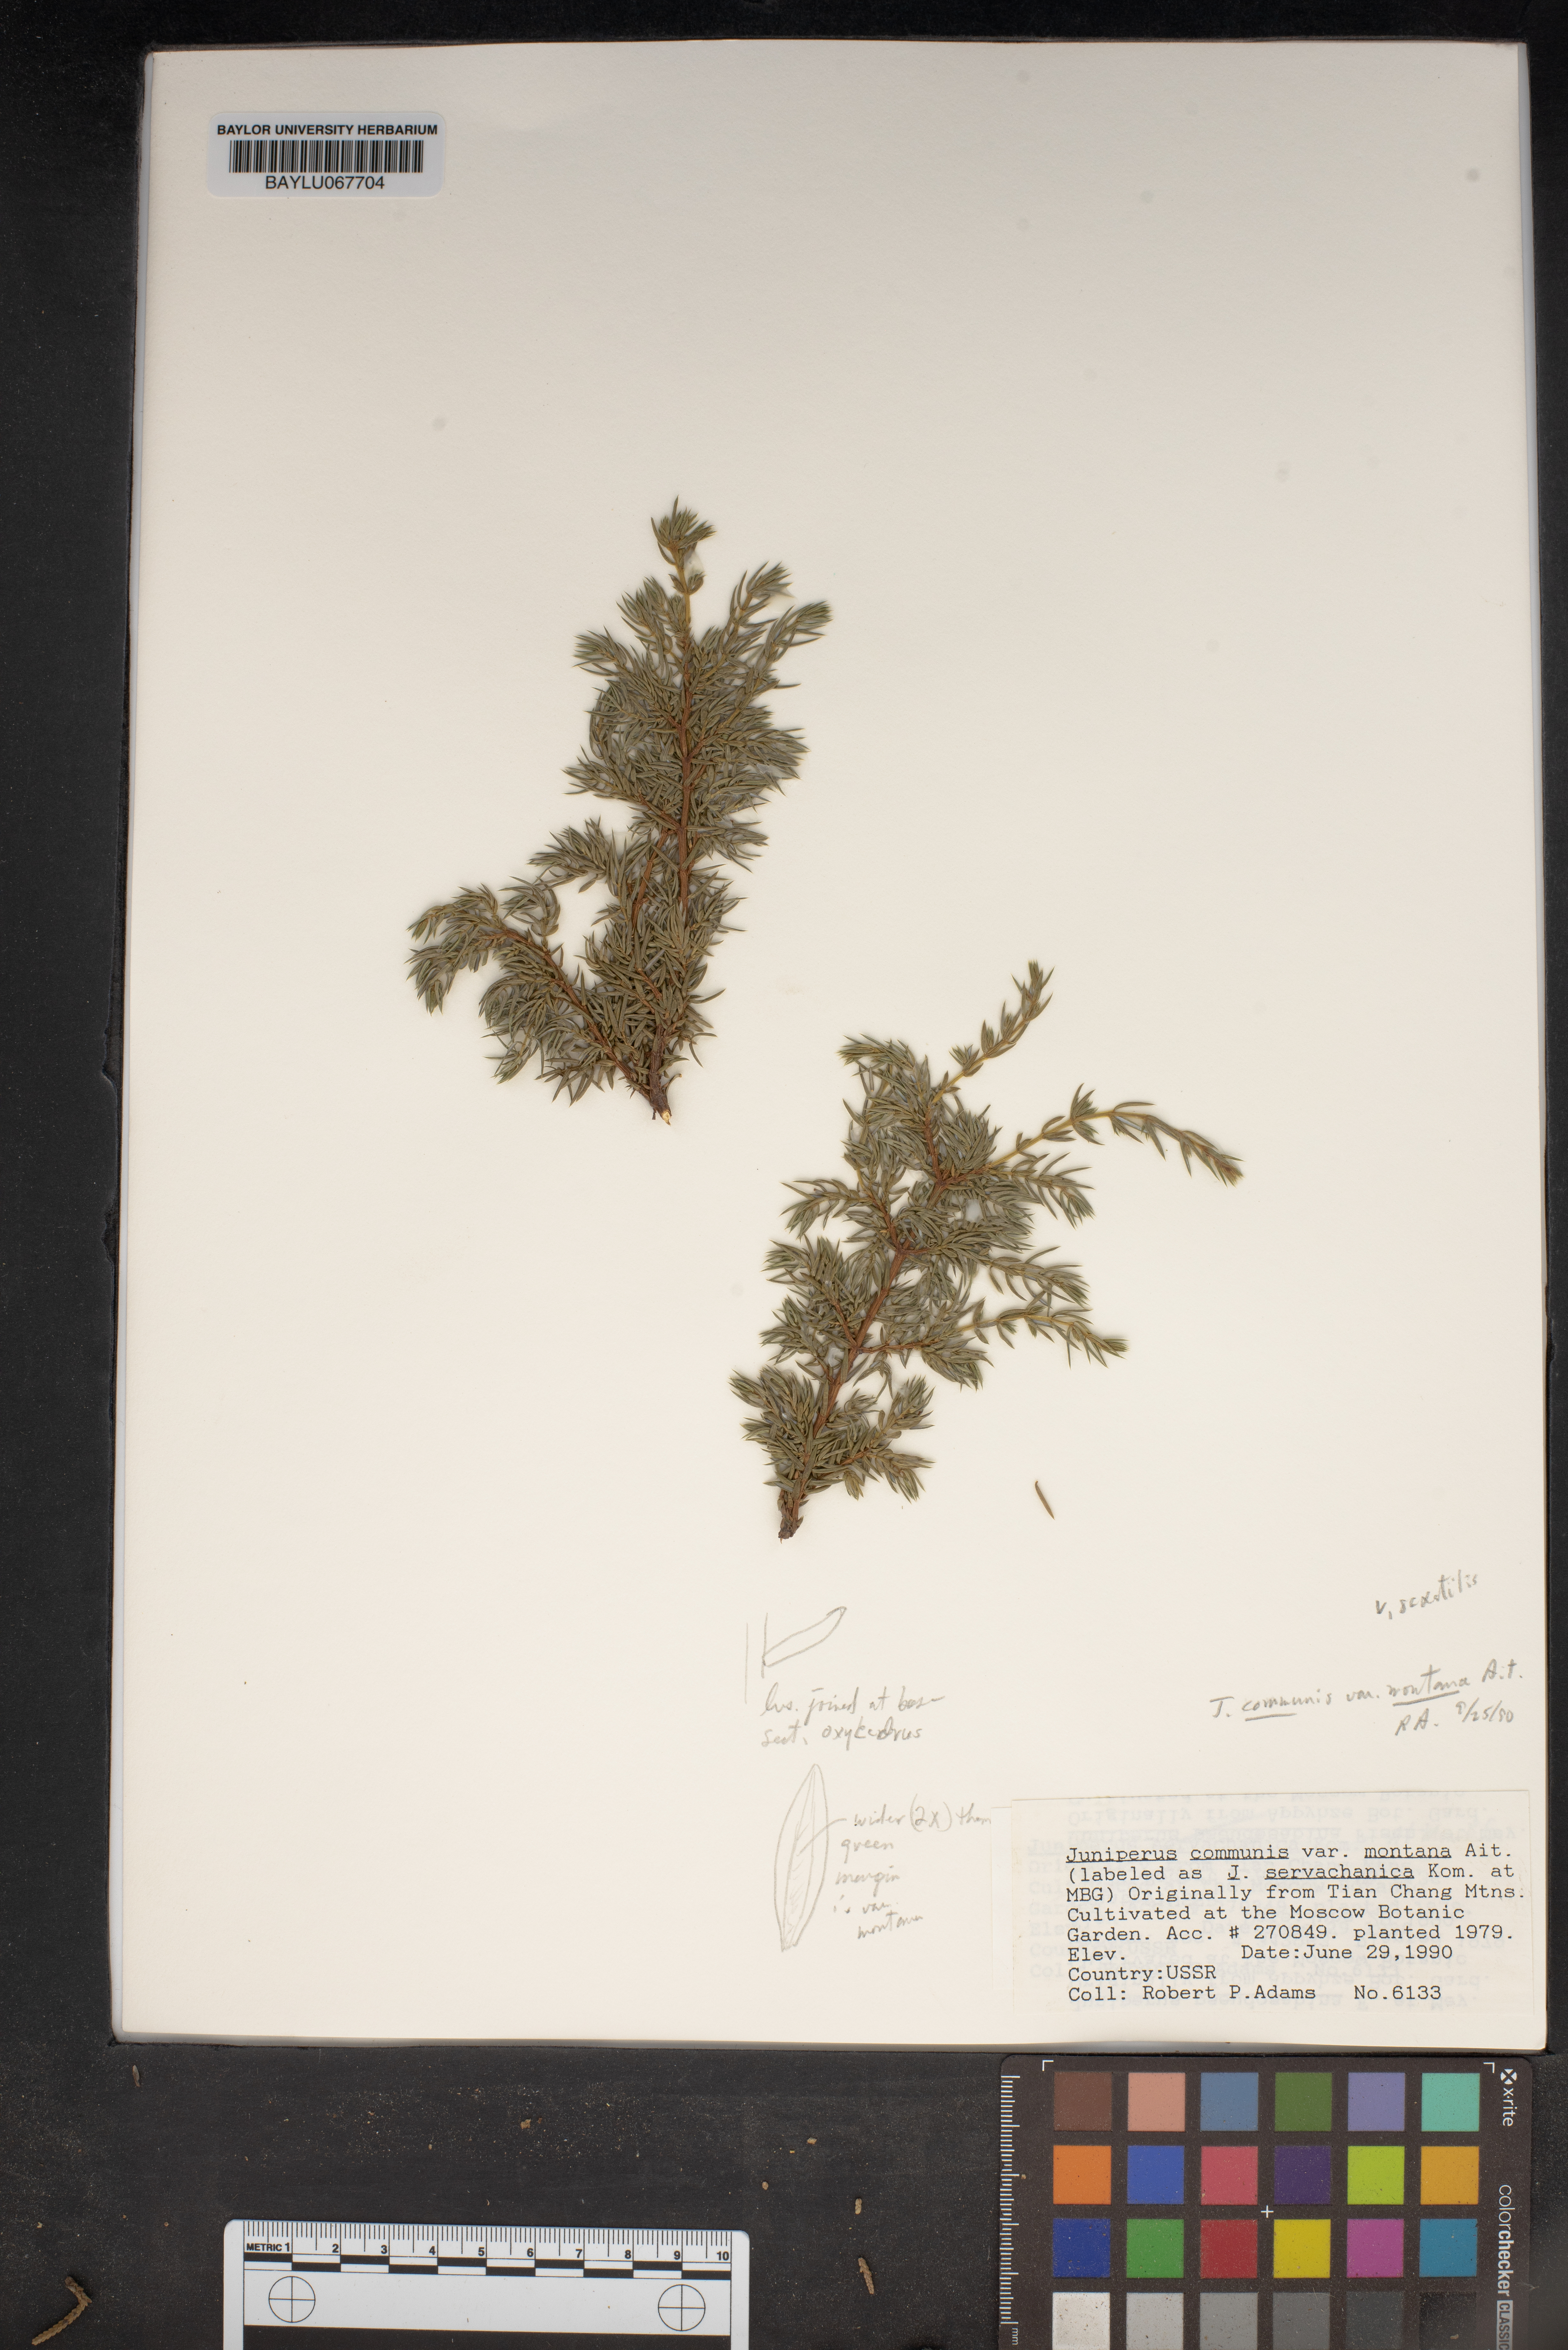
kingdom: Plantae
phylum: Tracheophyta
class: Pinopsida
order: Pinales
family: Cupressaceae
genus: Juniperus
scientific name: Juniperus communis
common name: Common juniper
